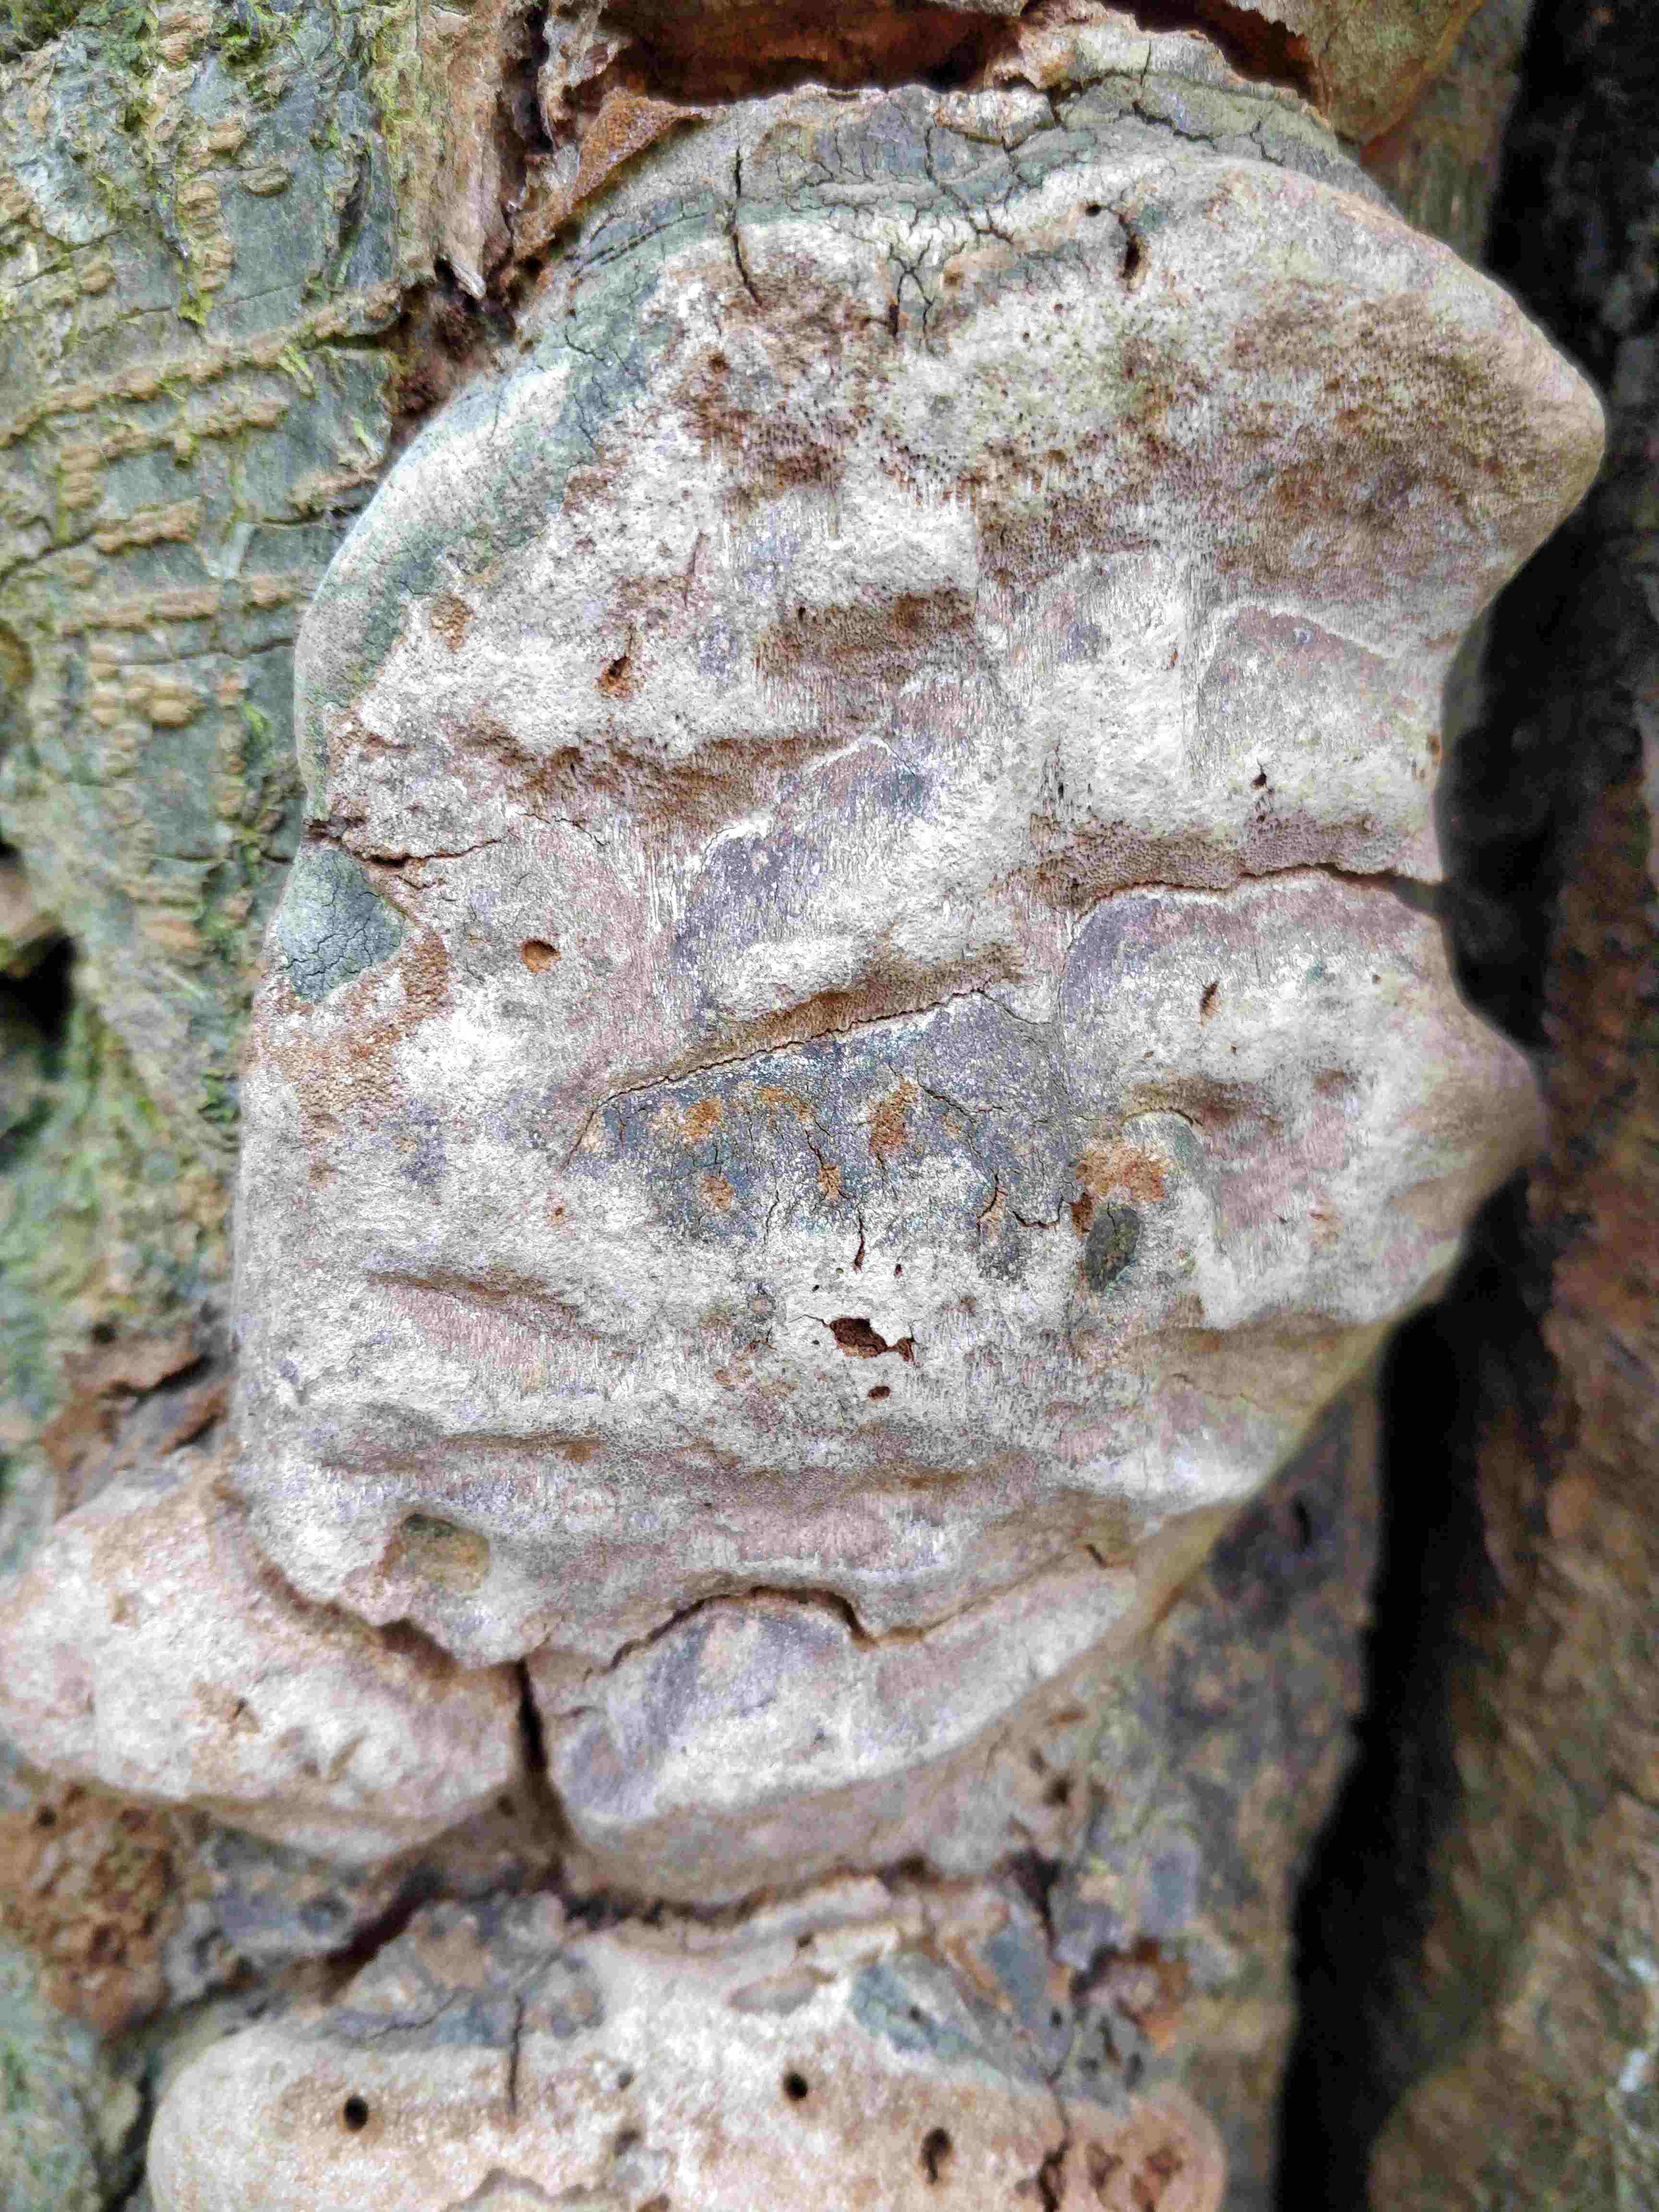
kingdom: Fungi
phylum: Basidiomycota
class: Agaricomycetes
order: Hymenochaetales
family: Hymenochaetaceae
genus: Phellinus
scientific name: Phellinus pomaceus
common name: blomme-ildporesvamp
